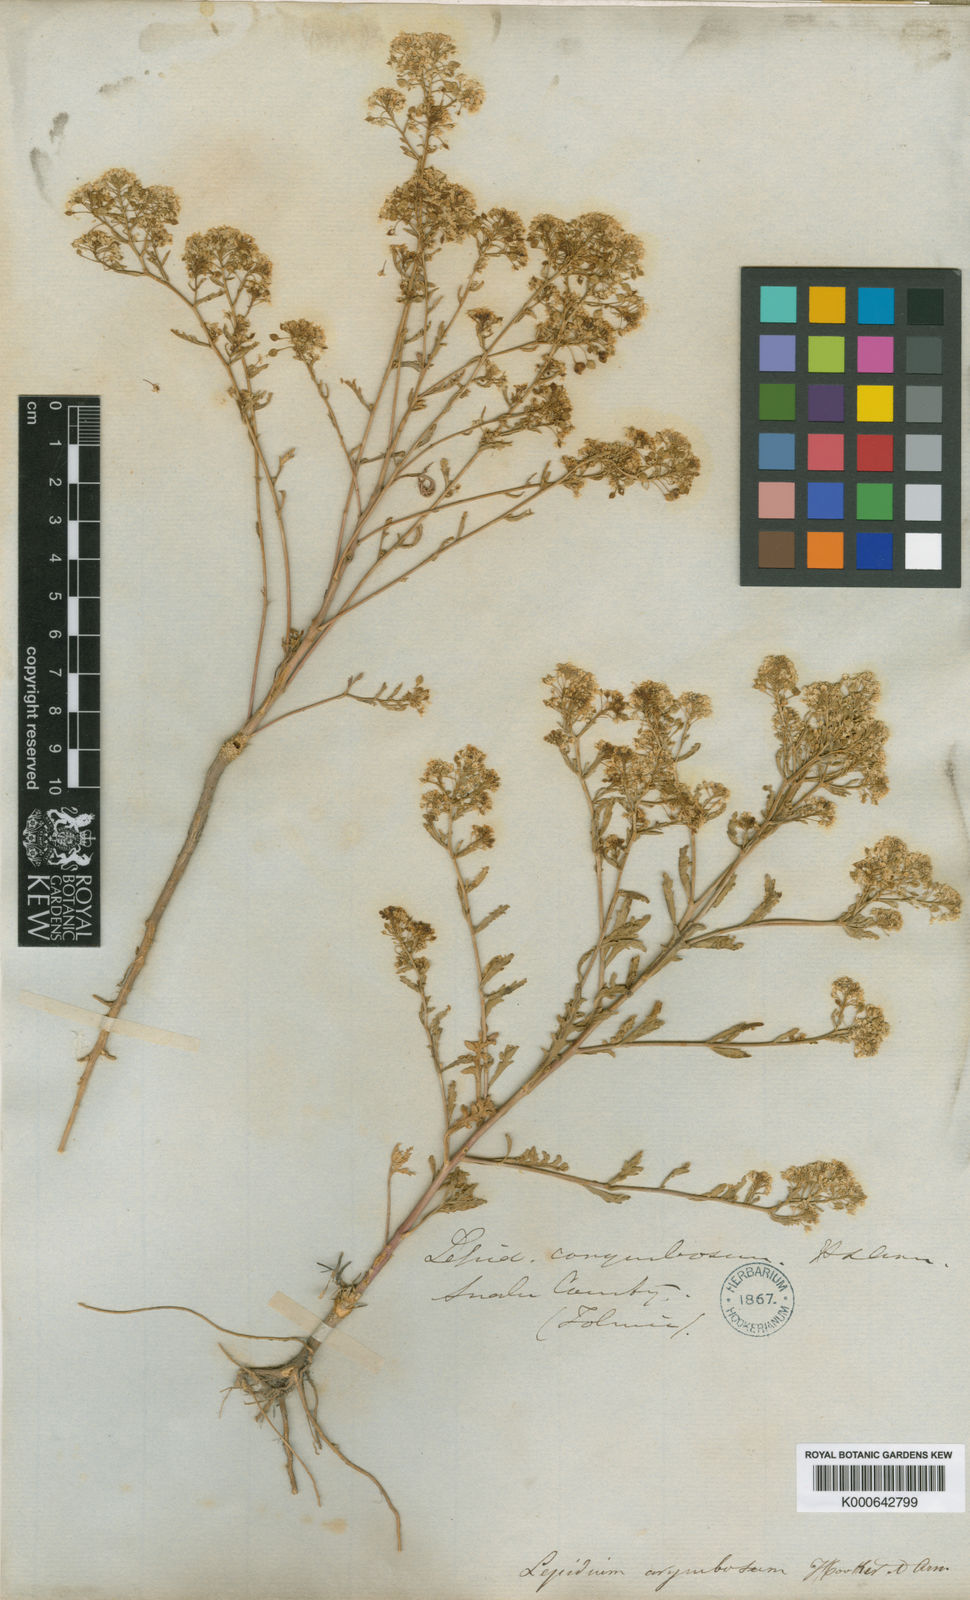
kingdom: Plantae
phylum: Tracheophyta
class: Magnoliopsida
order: Brassicales
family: Brassicaceae
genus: Lepidium
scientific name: Lepidium montanum
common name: Mountain pepperplant
